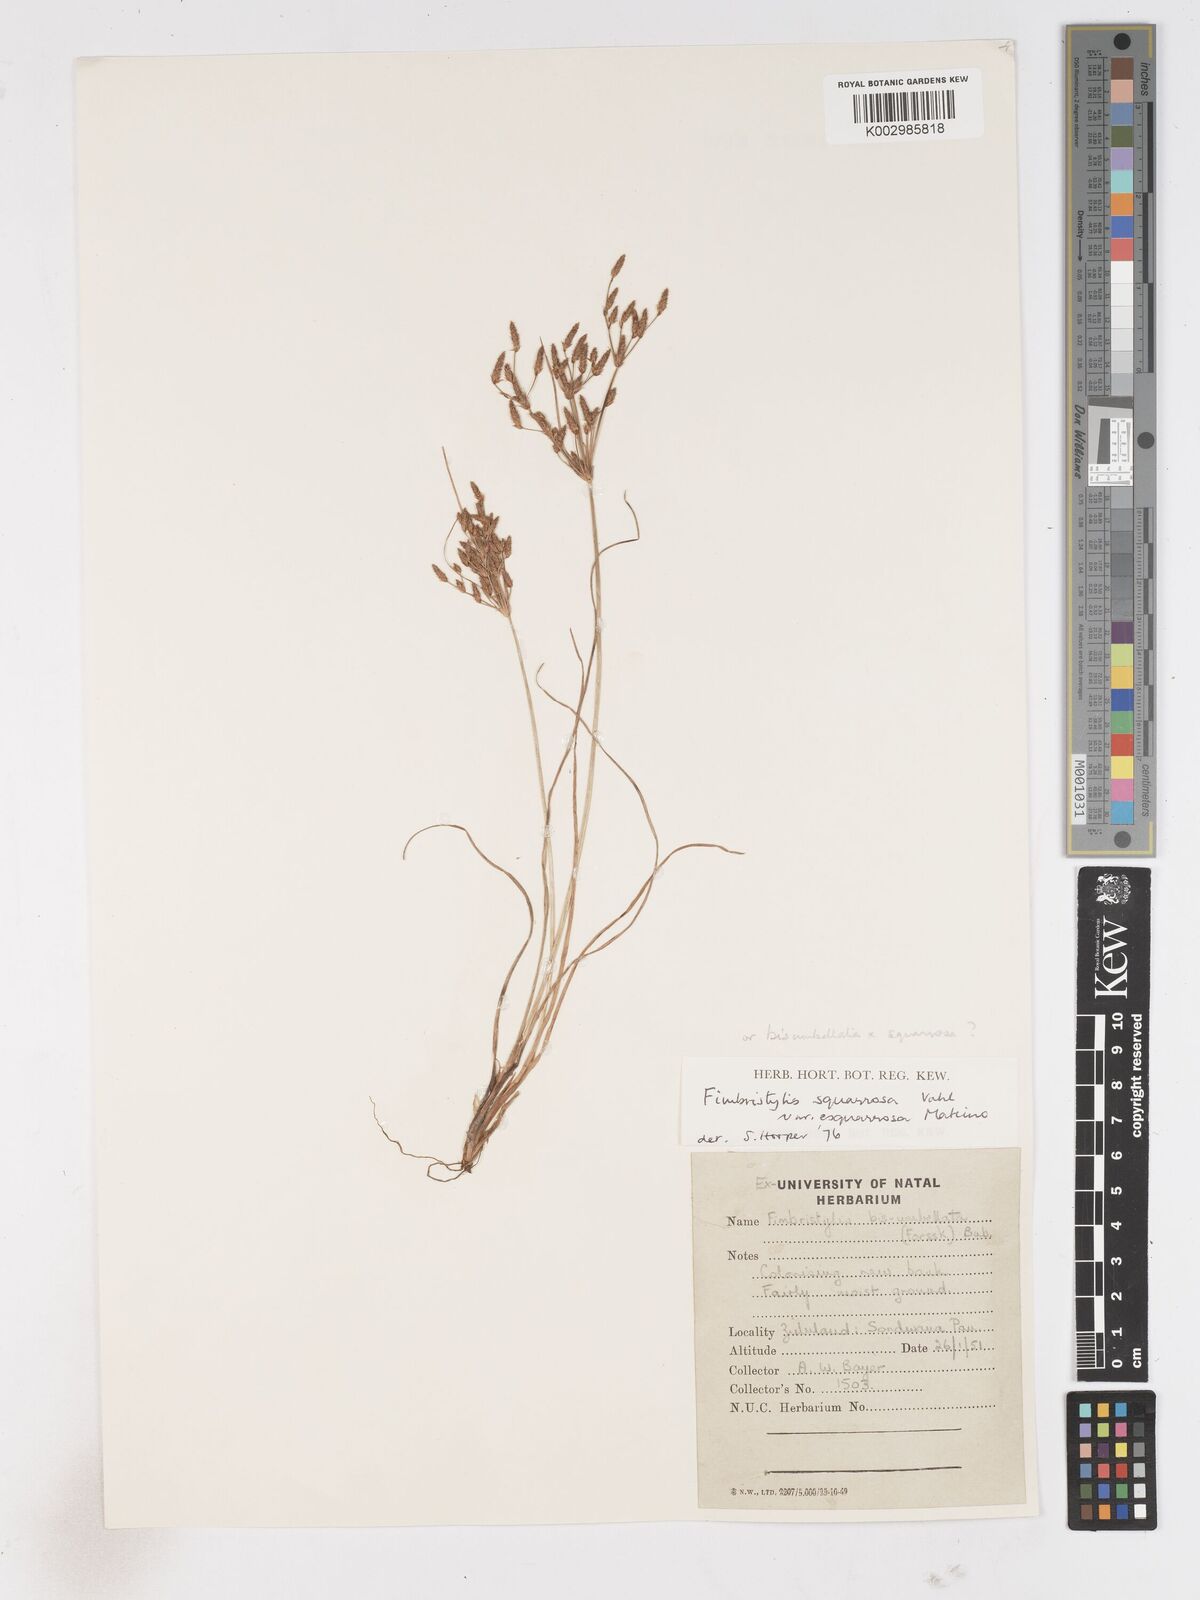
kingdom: Plantae
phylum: Tracheophyta
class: Liliopsida
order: Poales
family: Cyperaceae
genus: Fimbristylis
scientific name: Fimbristylis velata
